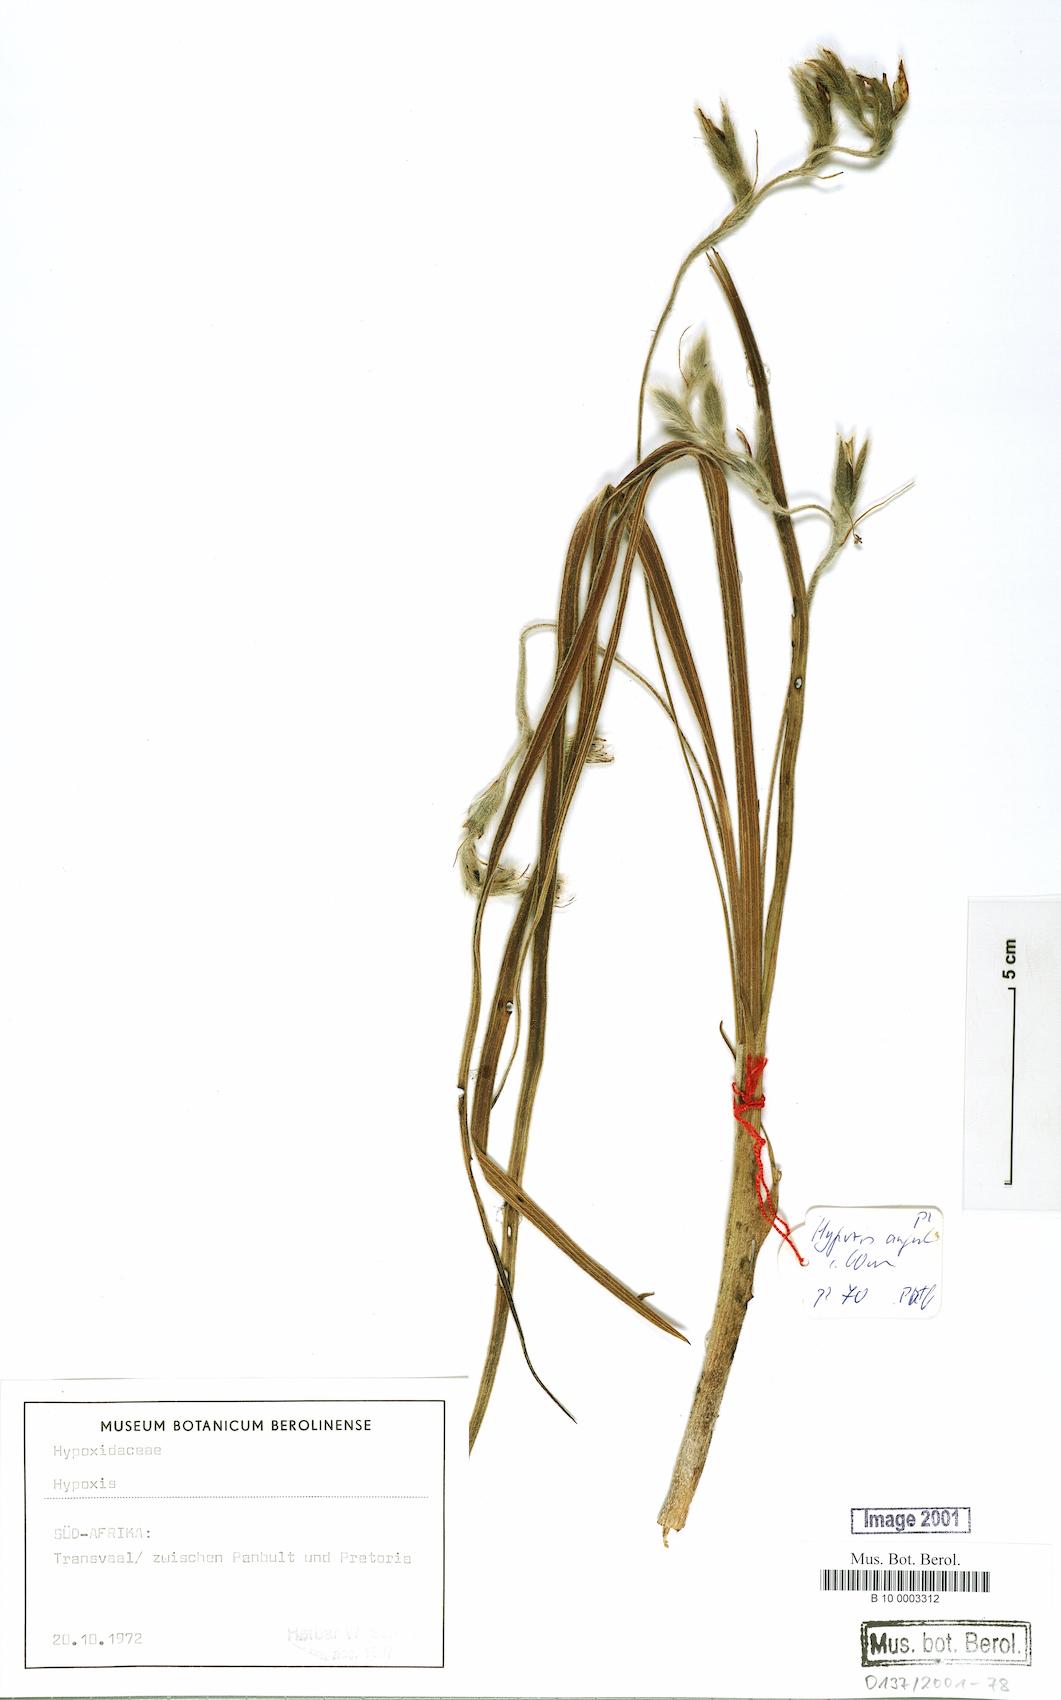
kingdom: Plantae
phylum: Tracheophyta
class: Liliopsida
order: Asparagales
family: Hypoxidaceae
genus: Hypoxis
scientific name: Hypoxis
